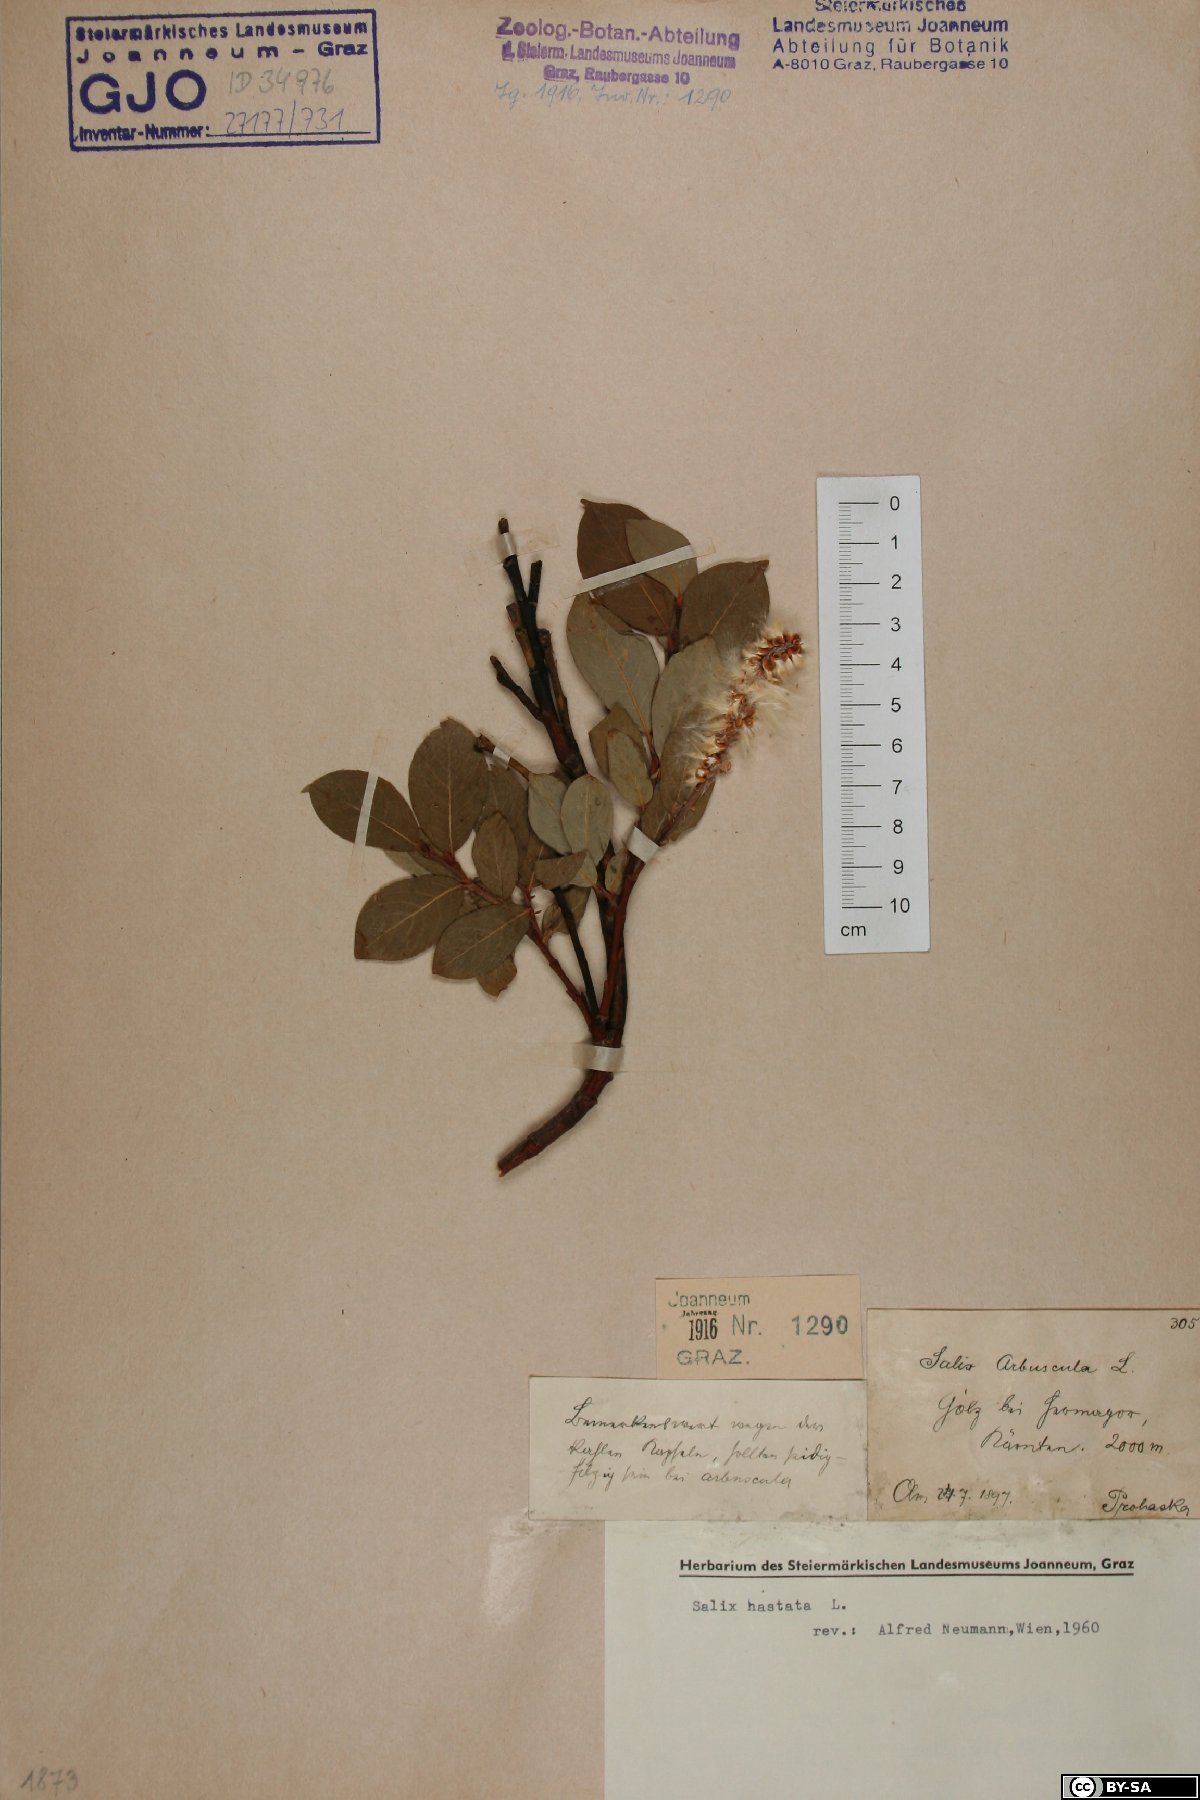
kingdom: Plantae
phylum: Tracheophyta
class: Magnoliopsida
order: Malpighiales
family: Salicaceae
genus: Salix
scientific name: Salix hastata
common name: Halberd willow
